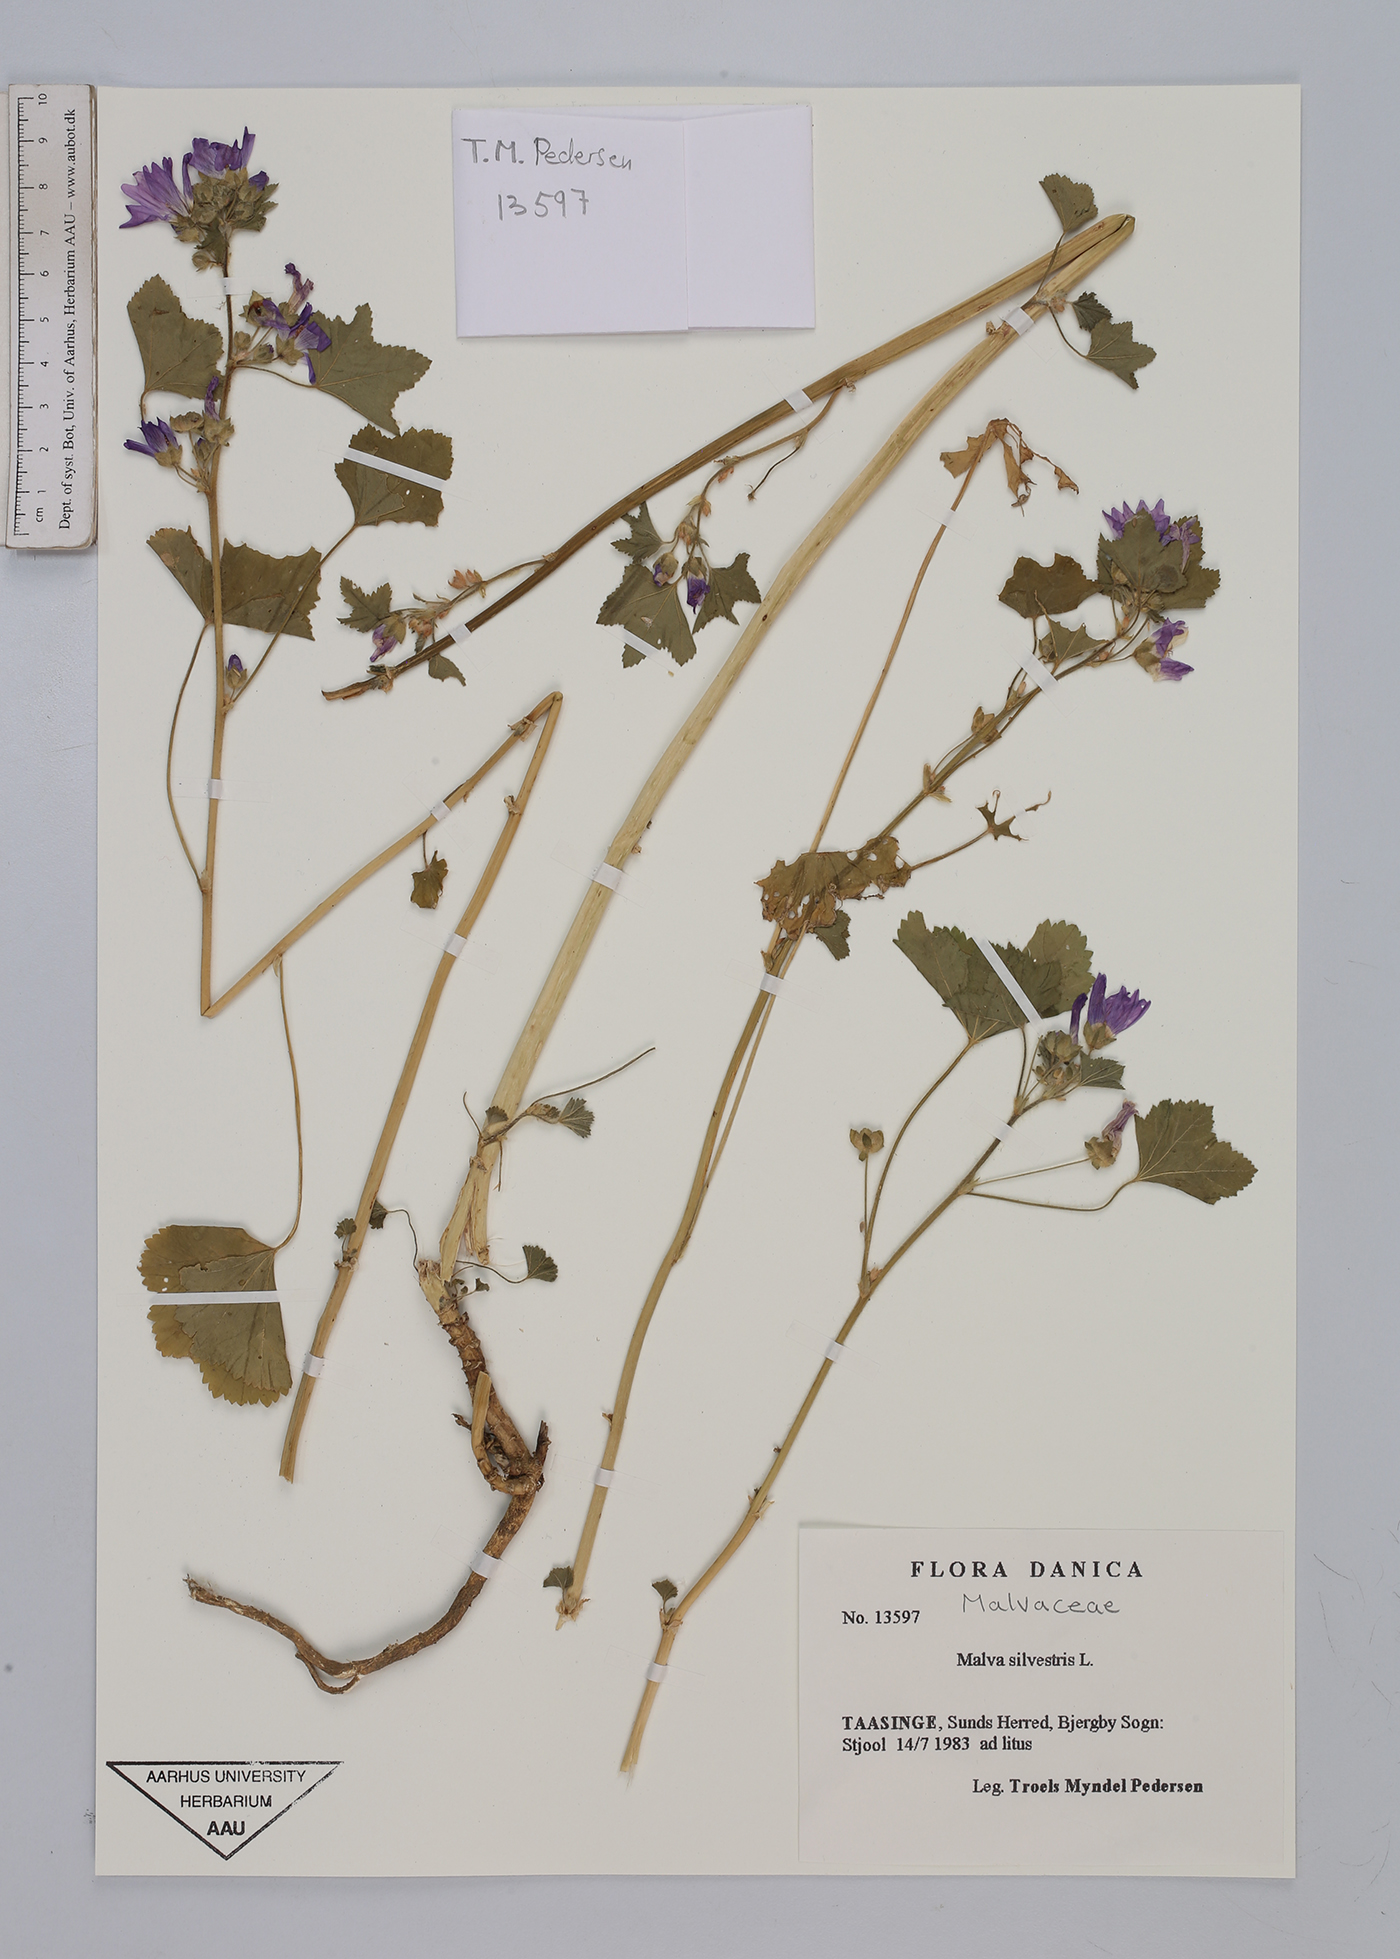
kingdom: Plantae
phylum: Tracheophyta
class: Magnoliopsida
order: Malvales
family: Malvaceae
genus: Malva
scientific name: Malva sylvestris
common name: Common mallow
